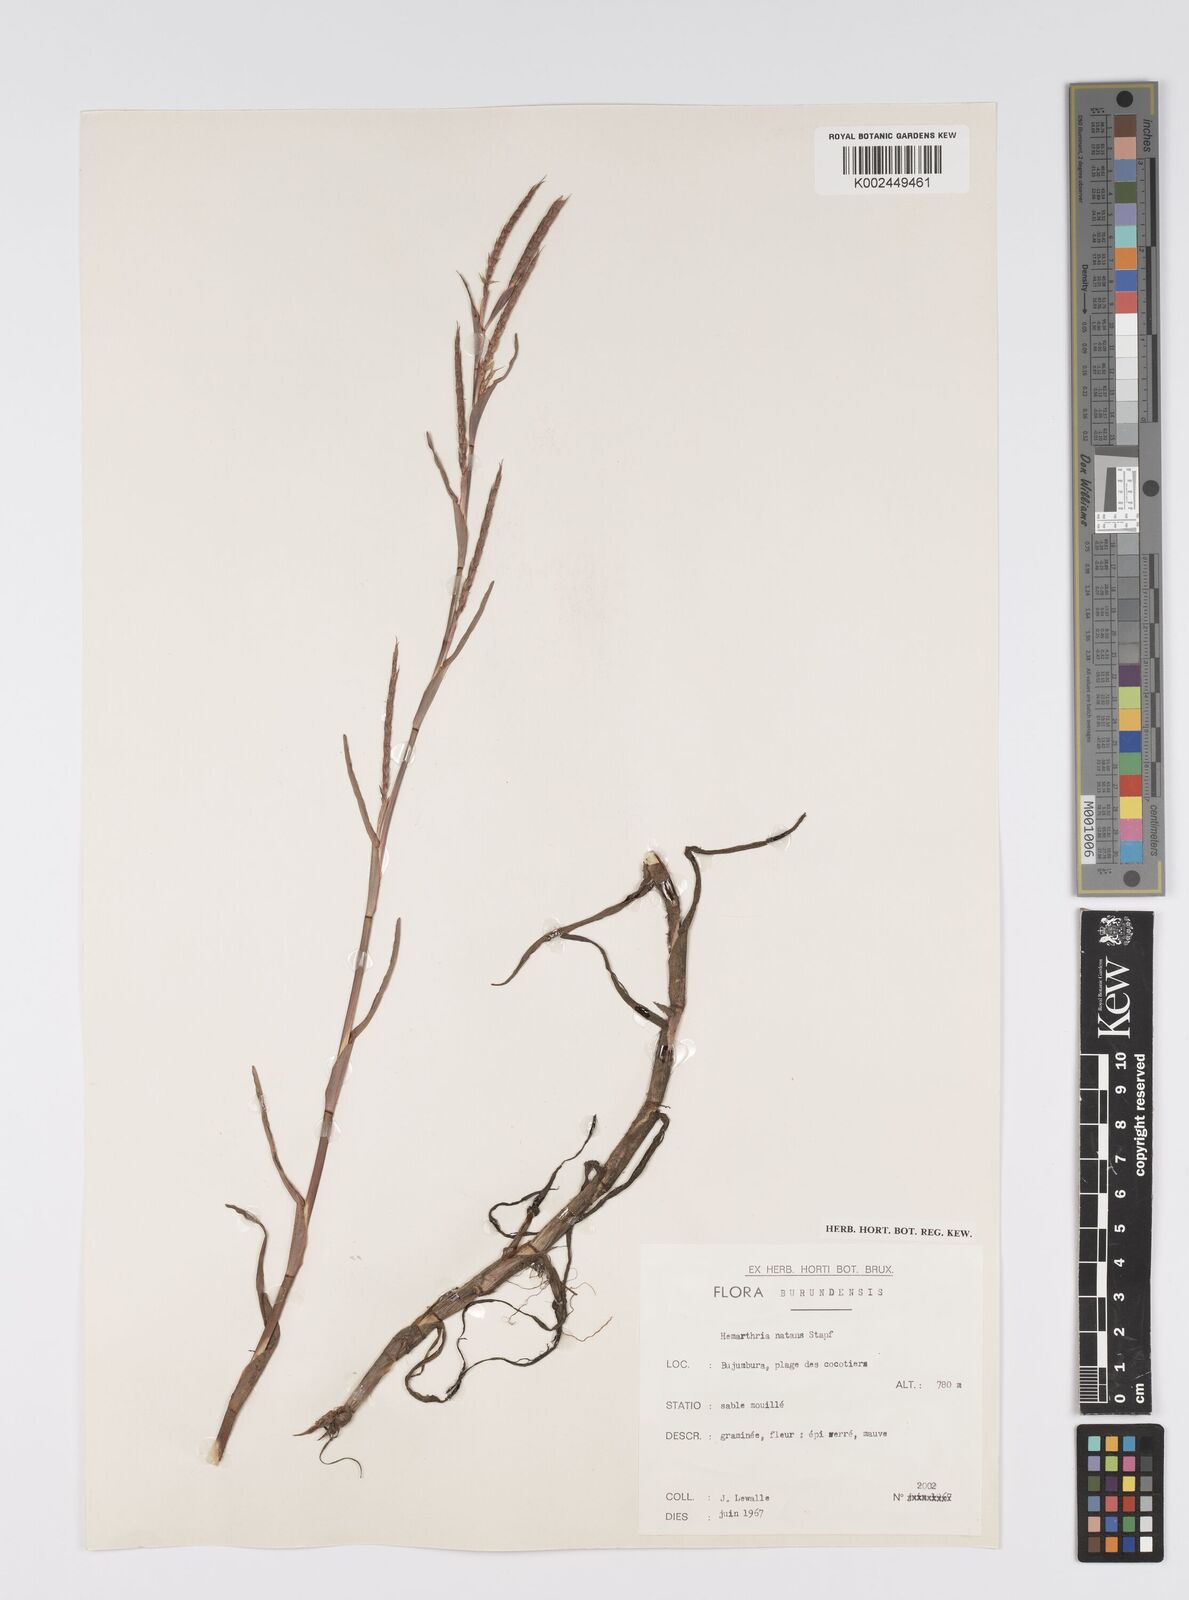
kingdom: Plantae
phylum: Tracheophyta
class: Liliopsida
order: Poales
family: Poaceae
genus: Hemarthria
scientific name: Hemarthria natans
